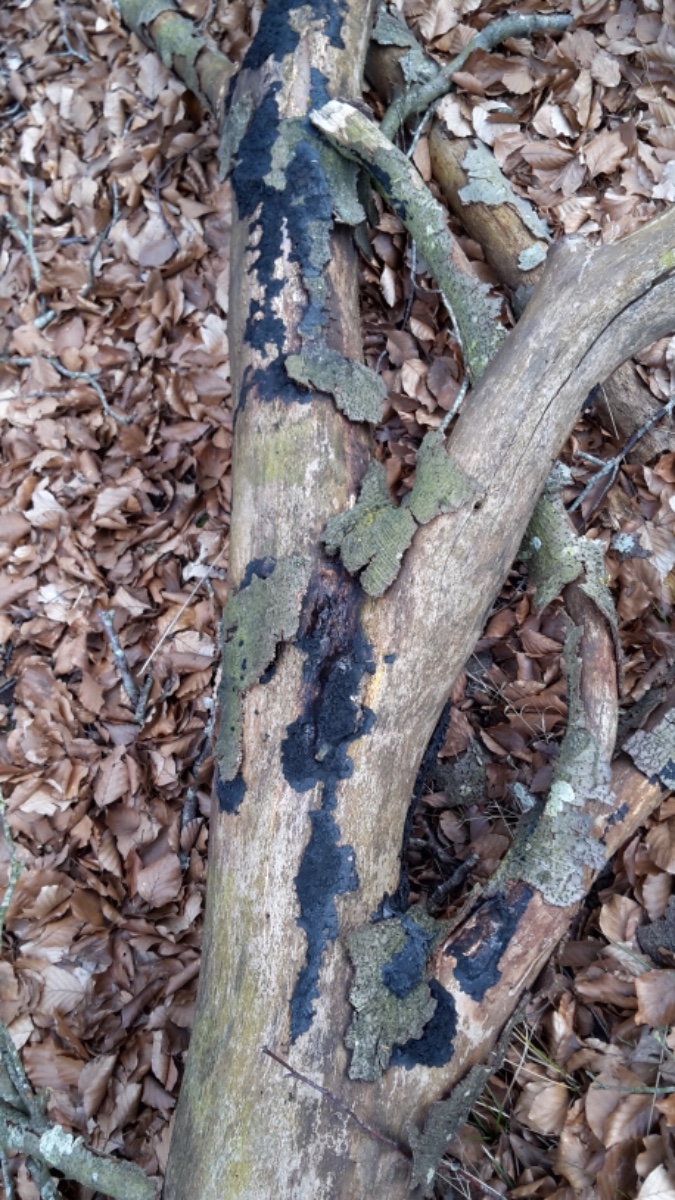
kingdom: Fungi
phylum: Basidiomycota
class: Agaricomycetes
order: Auriculariales
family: Auriculariaceae
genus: Exidia
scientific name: Exidia nigricans
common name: almindelig bævretop
